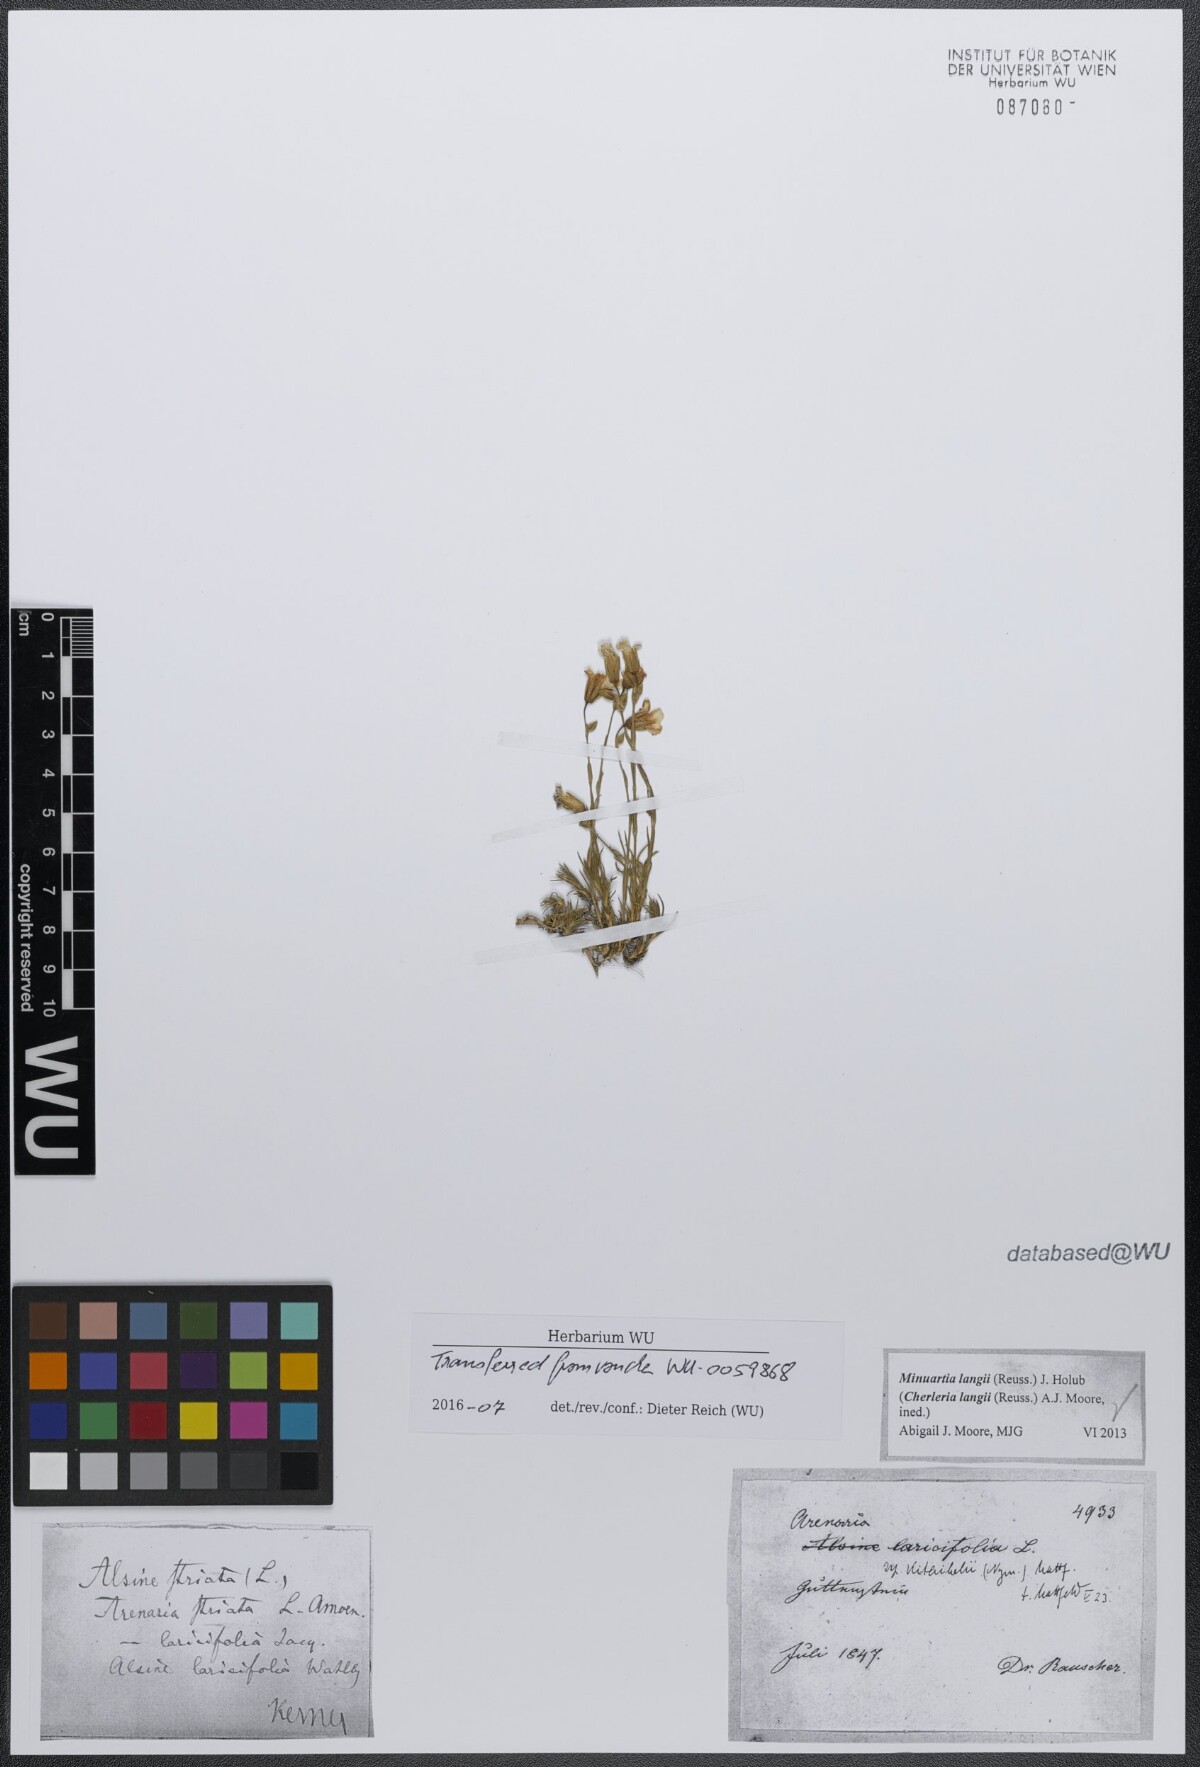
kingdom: Plantae
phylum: Tracheophyta
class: Magnoliopsida
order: Caryophyllales
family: Caryophyllaceae
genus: Cherleria
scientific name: Cherleria langii
